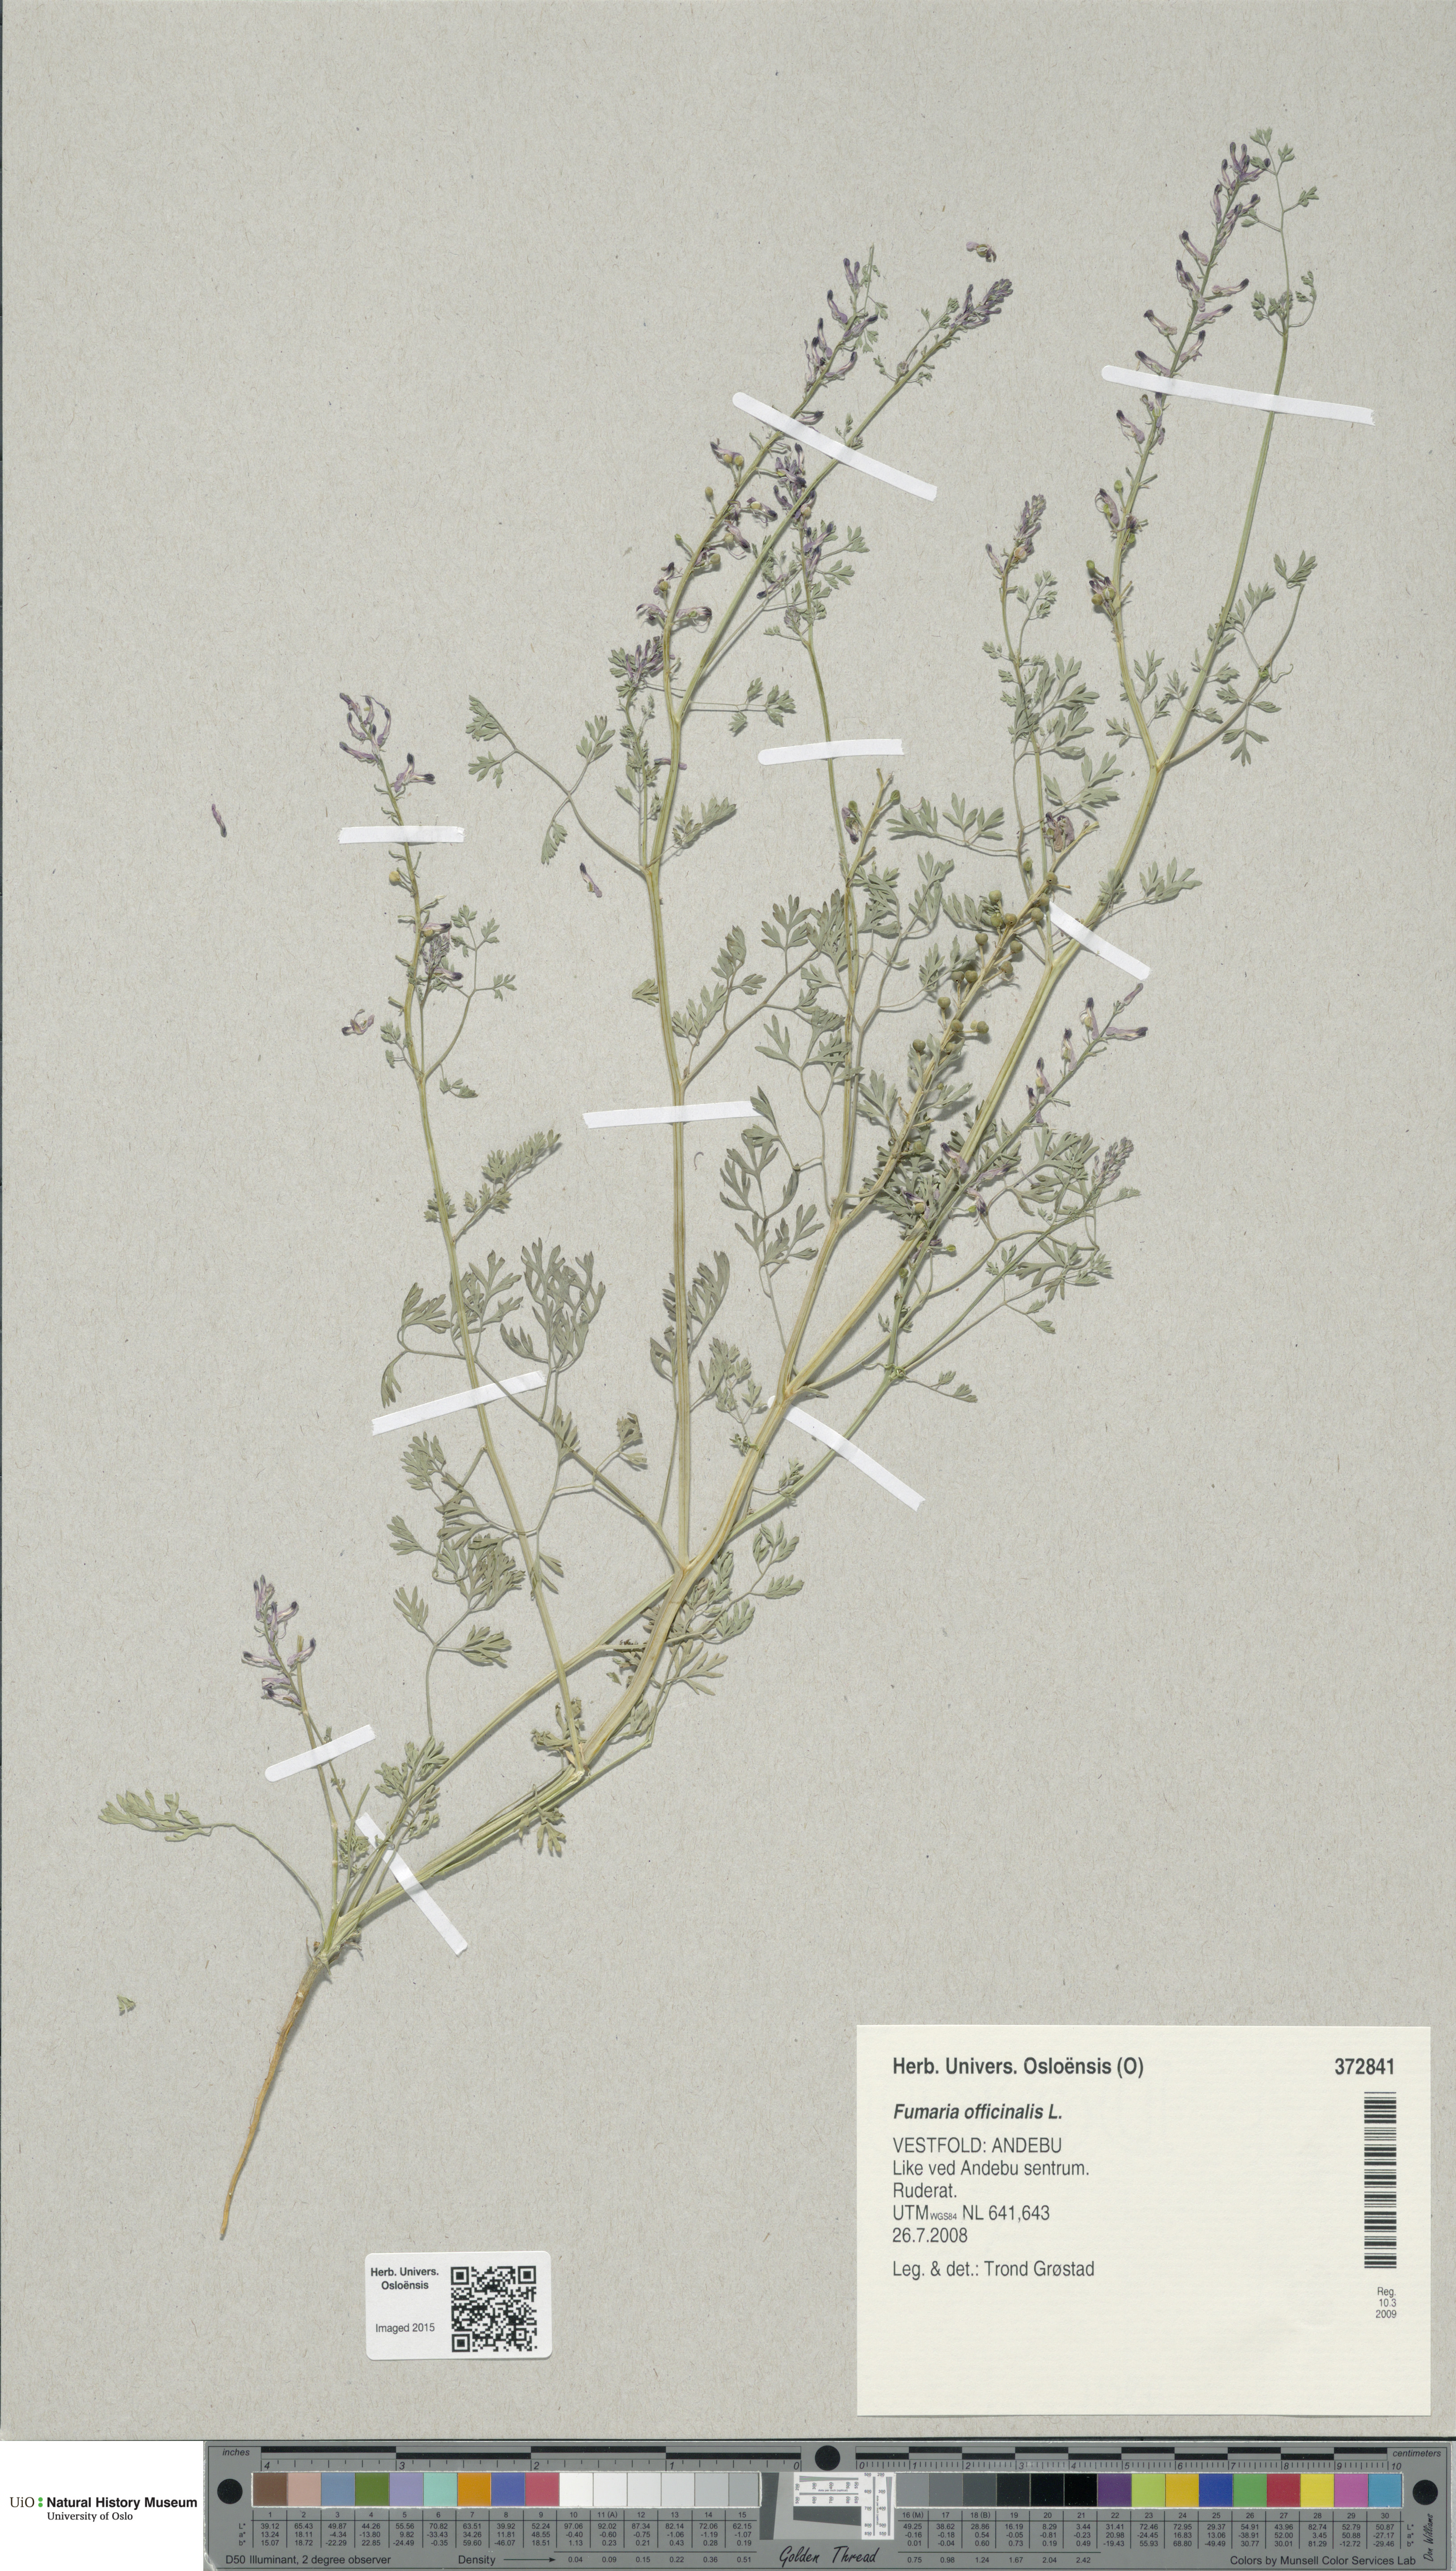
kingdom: Plantae
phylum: Tracheophyta
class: Magnoliopsida
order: Ranunculales
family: Papaveraceae
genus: Fumaria
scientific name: Fumaria officinalis
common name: Common fumitory
